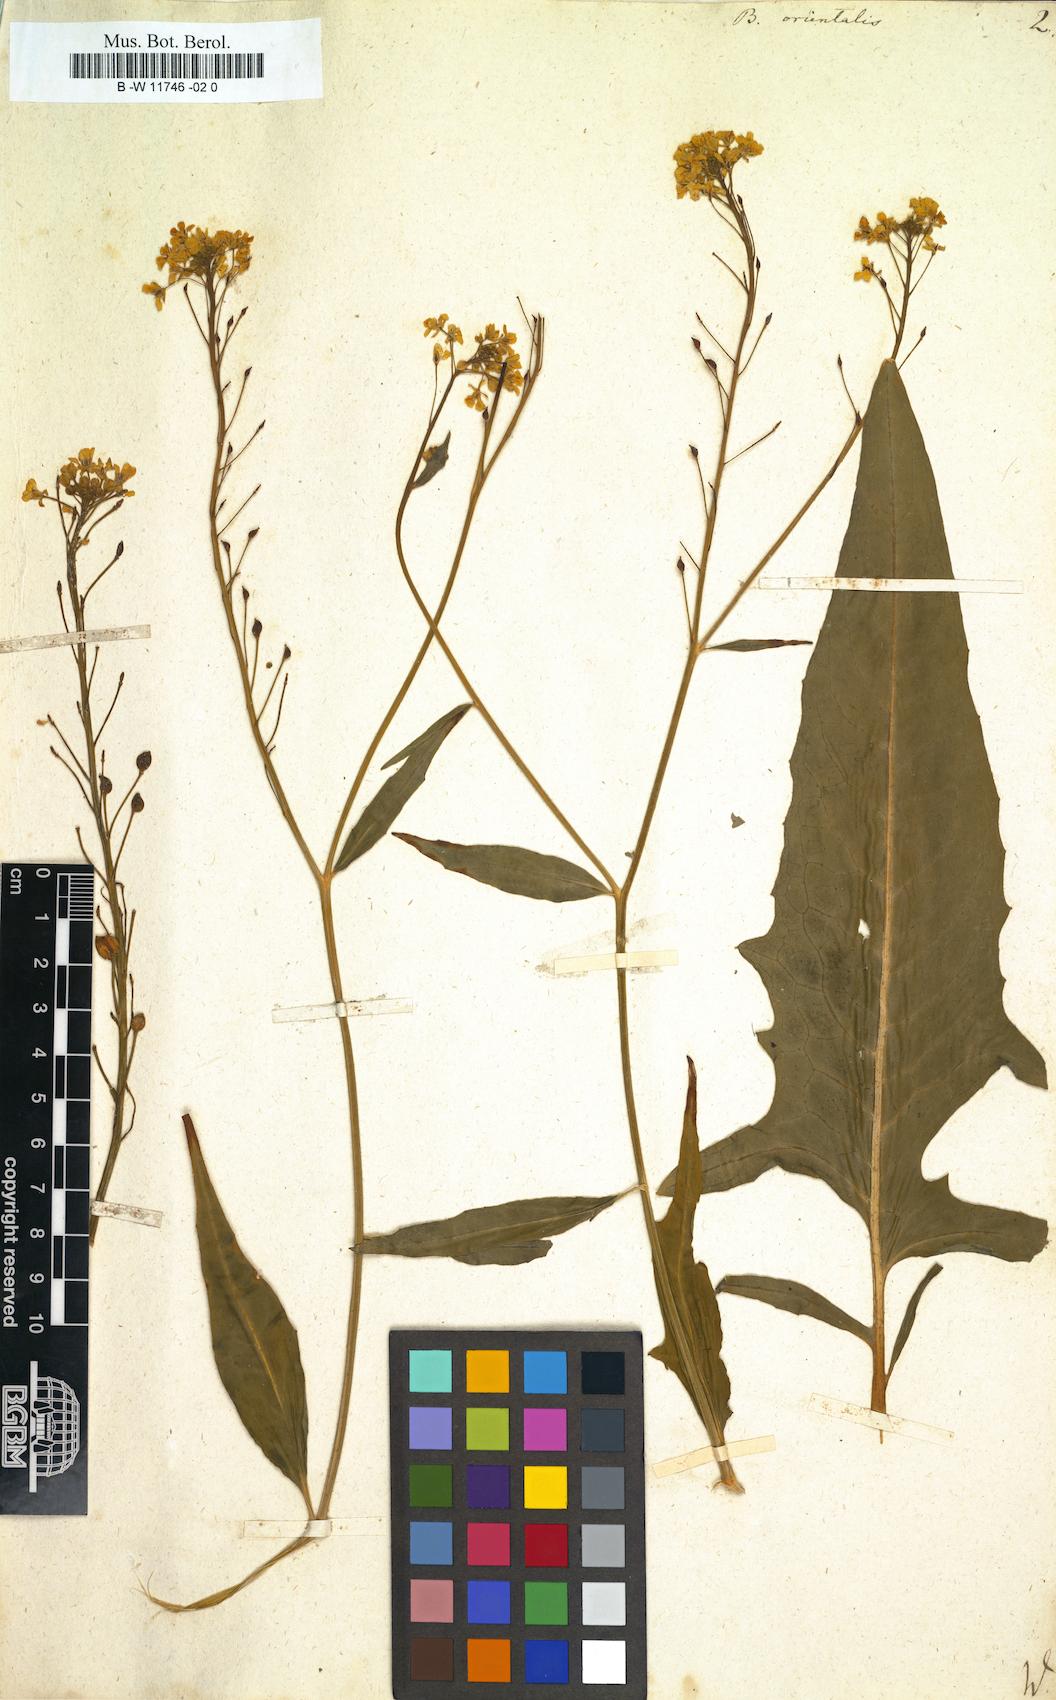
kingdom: Plantae
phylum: Tracheophyta
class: Magnoliopsida
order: Brassicales
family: Brassicaceae
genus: Bunias
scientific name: Bunias orientalis
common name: Warty-cabbage
